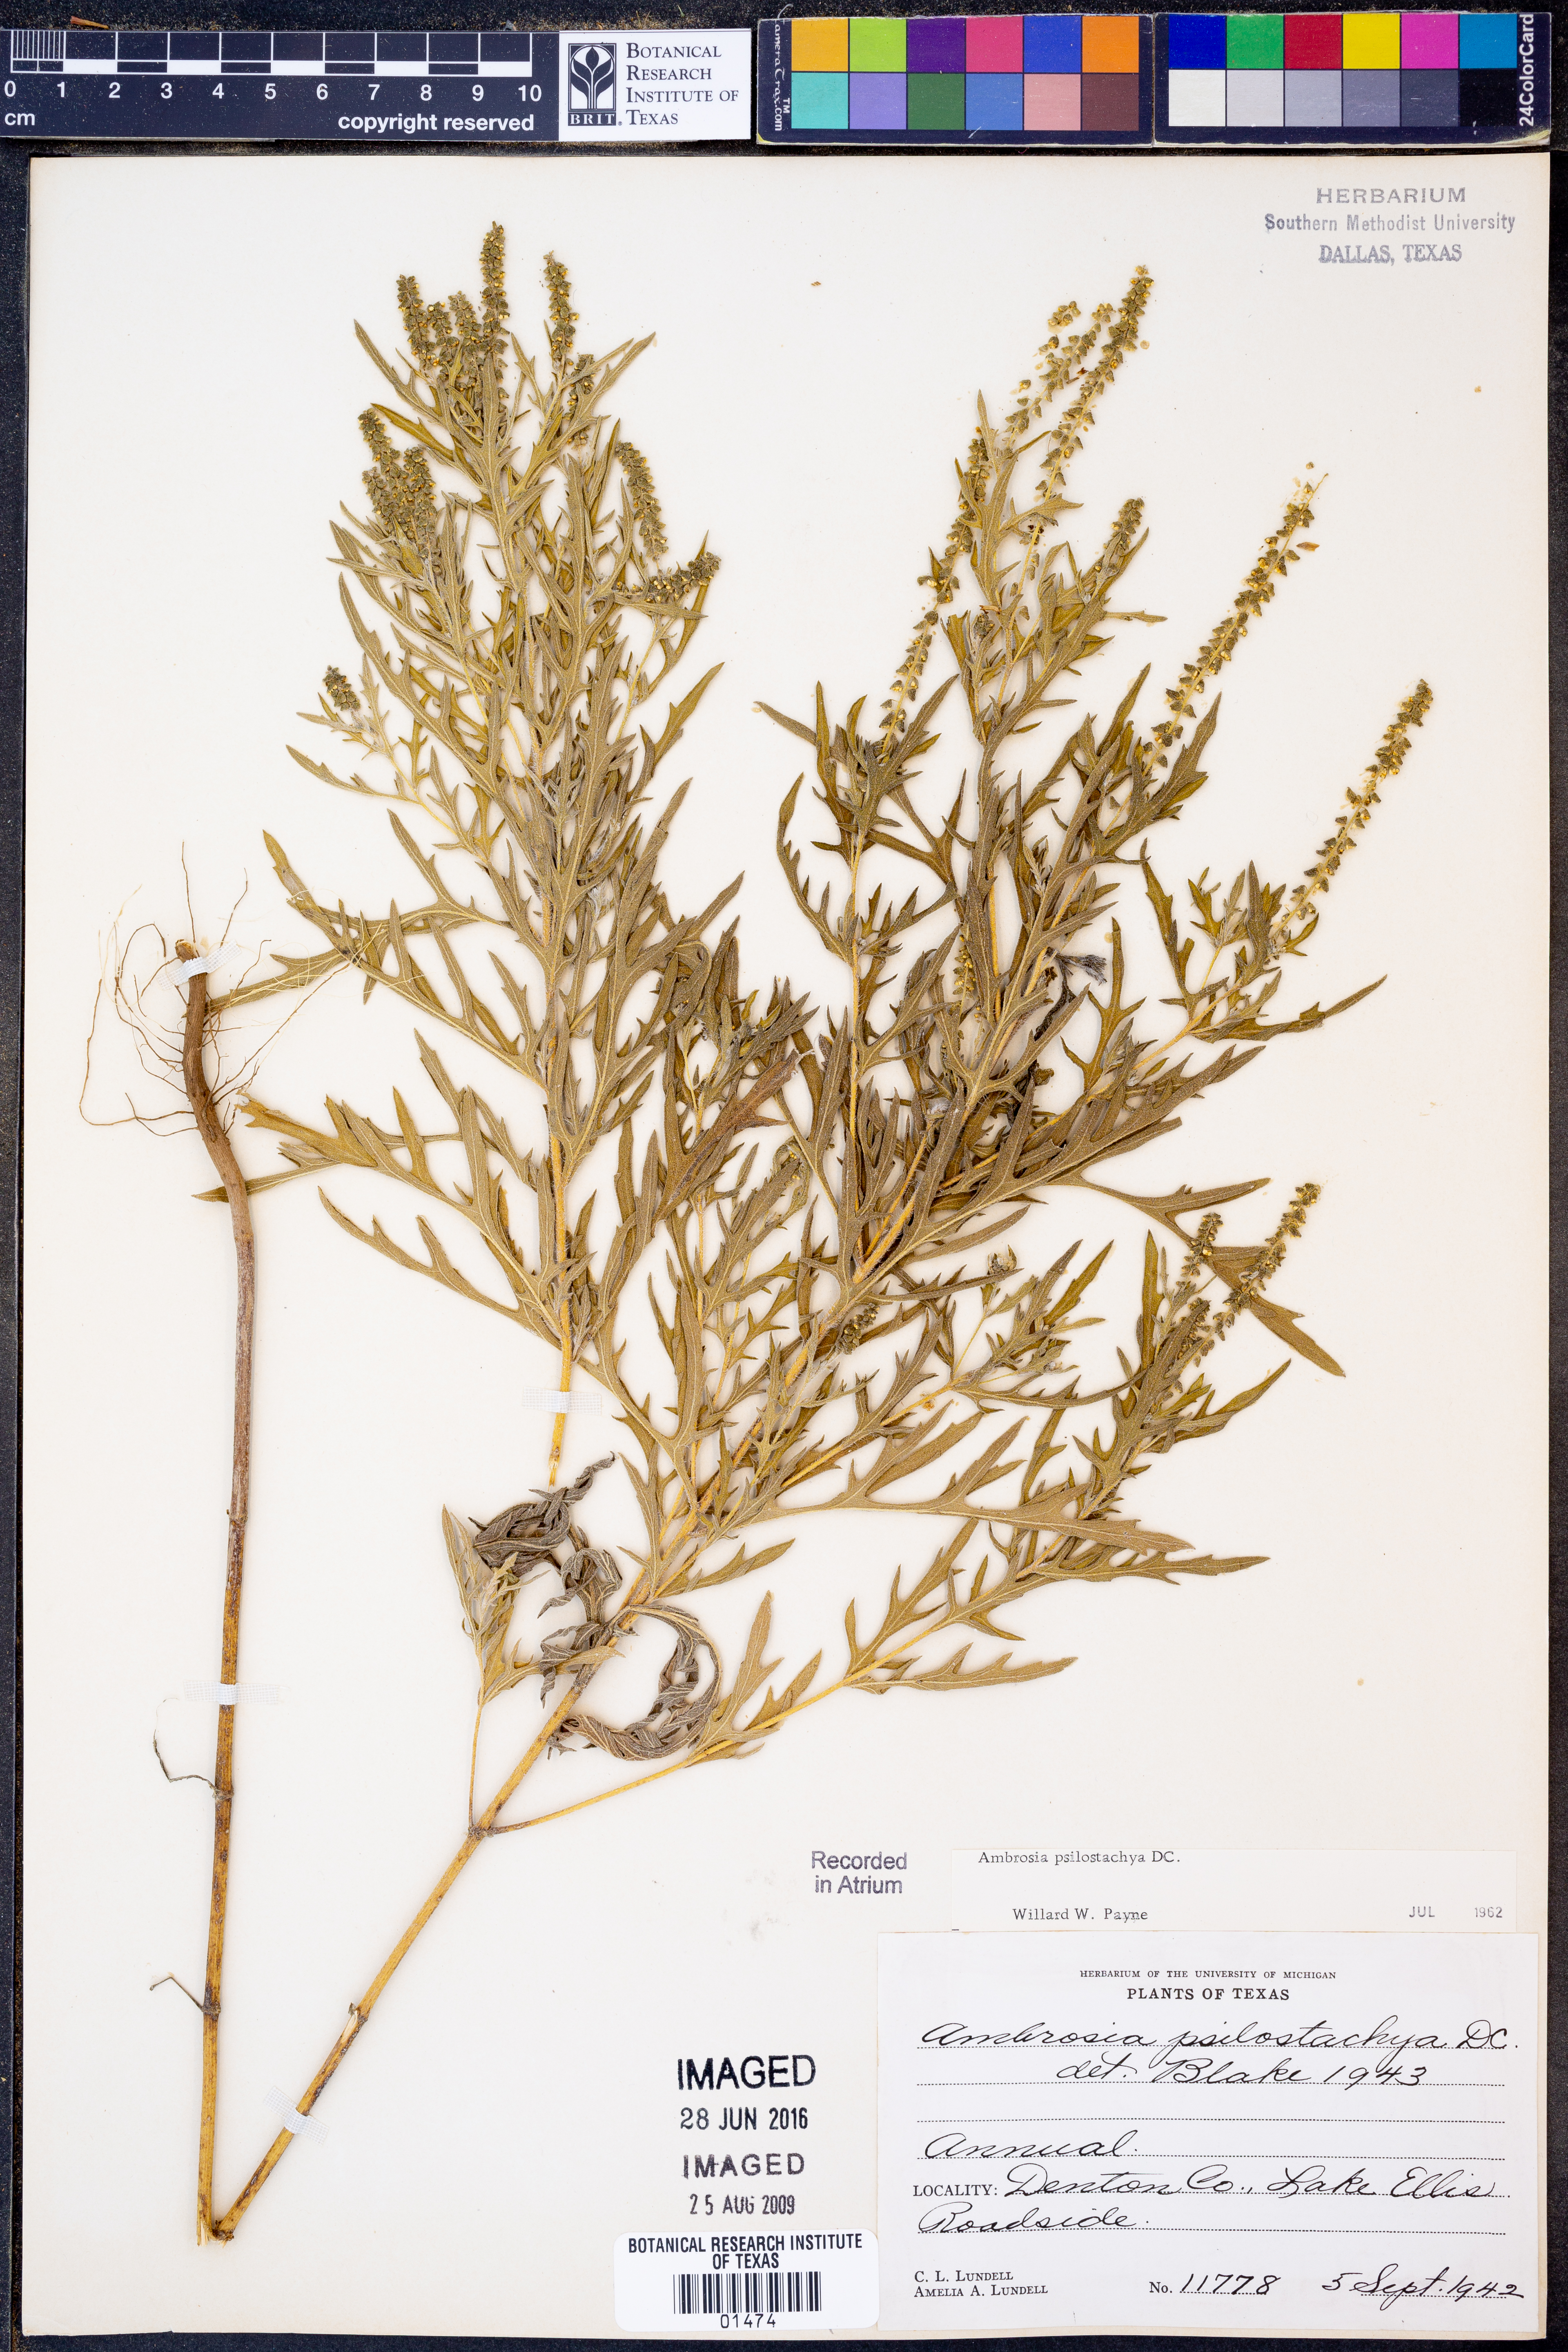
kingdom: Plantae
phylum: Tracheophyta
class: Magnoliopsida
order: Asterales
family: Asteraceae
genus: Ambrosia
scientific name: Ambrosia psilostachya
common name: Perennial ragweed
